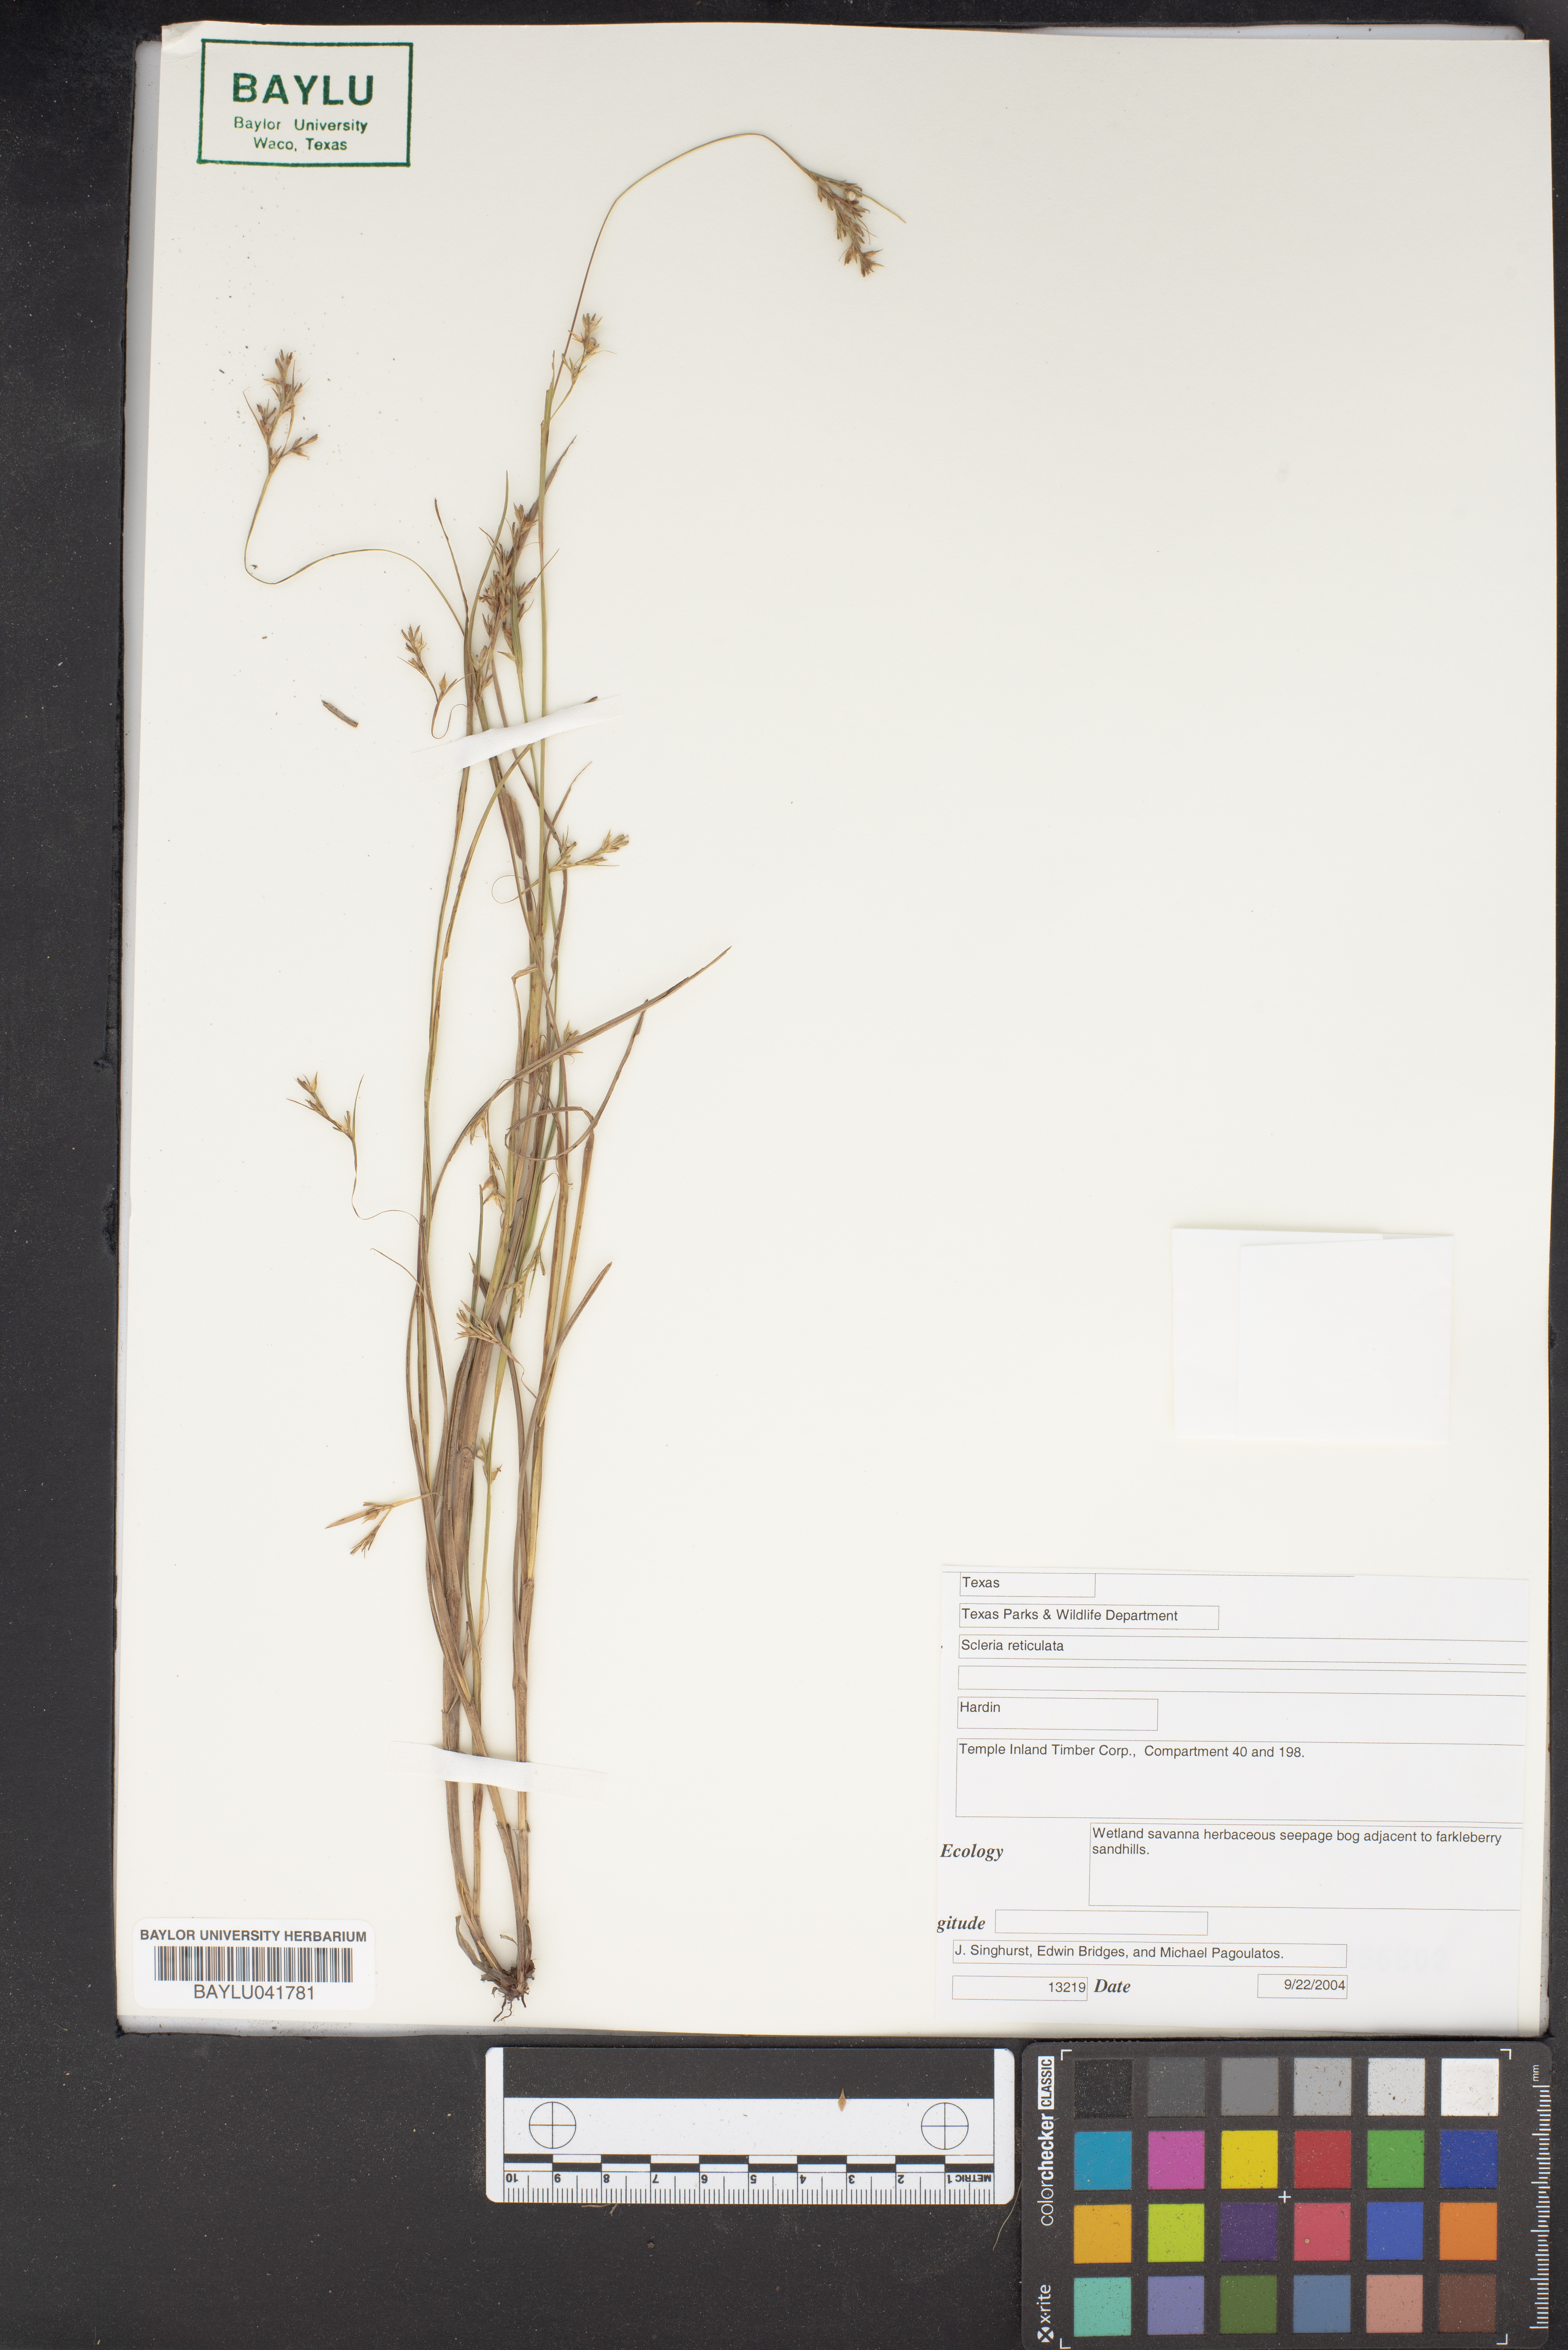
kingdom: Plantae
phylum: Tracheophyta
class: Liliopsida
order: Poales
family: Cyperaceae
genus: Diplacrum
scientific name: Diplacrum reticulatum
